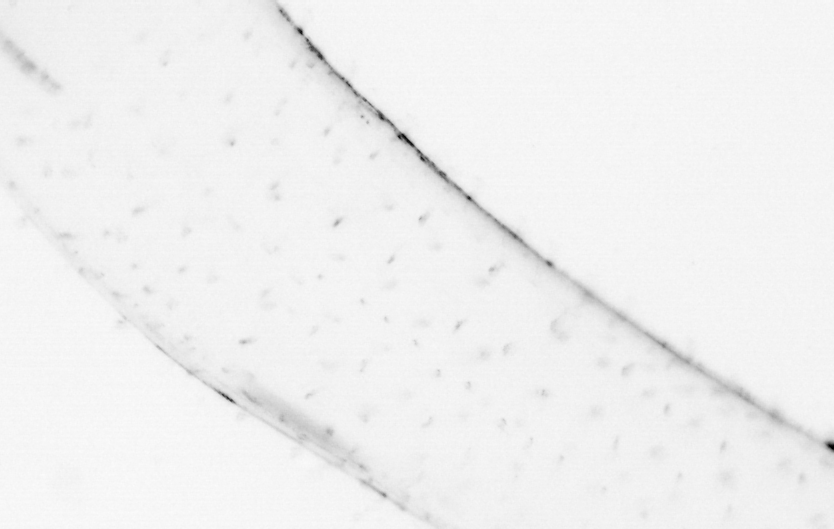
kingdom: Animalia
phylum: Chaetognatha
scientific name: Chaetognatha
